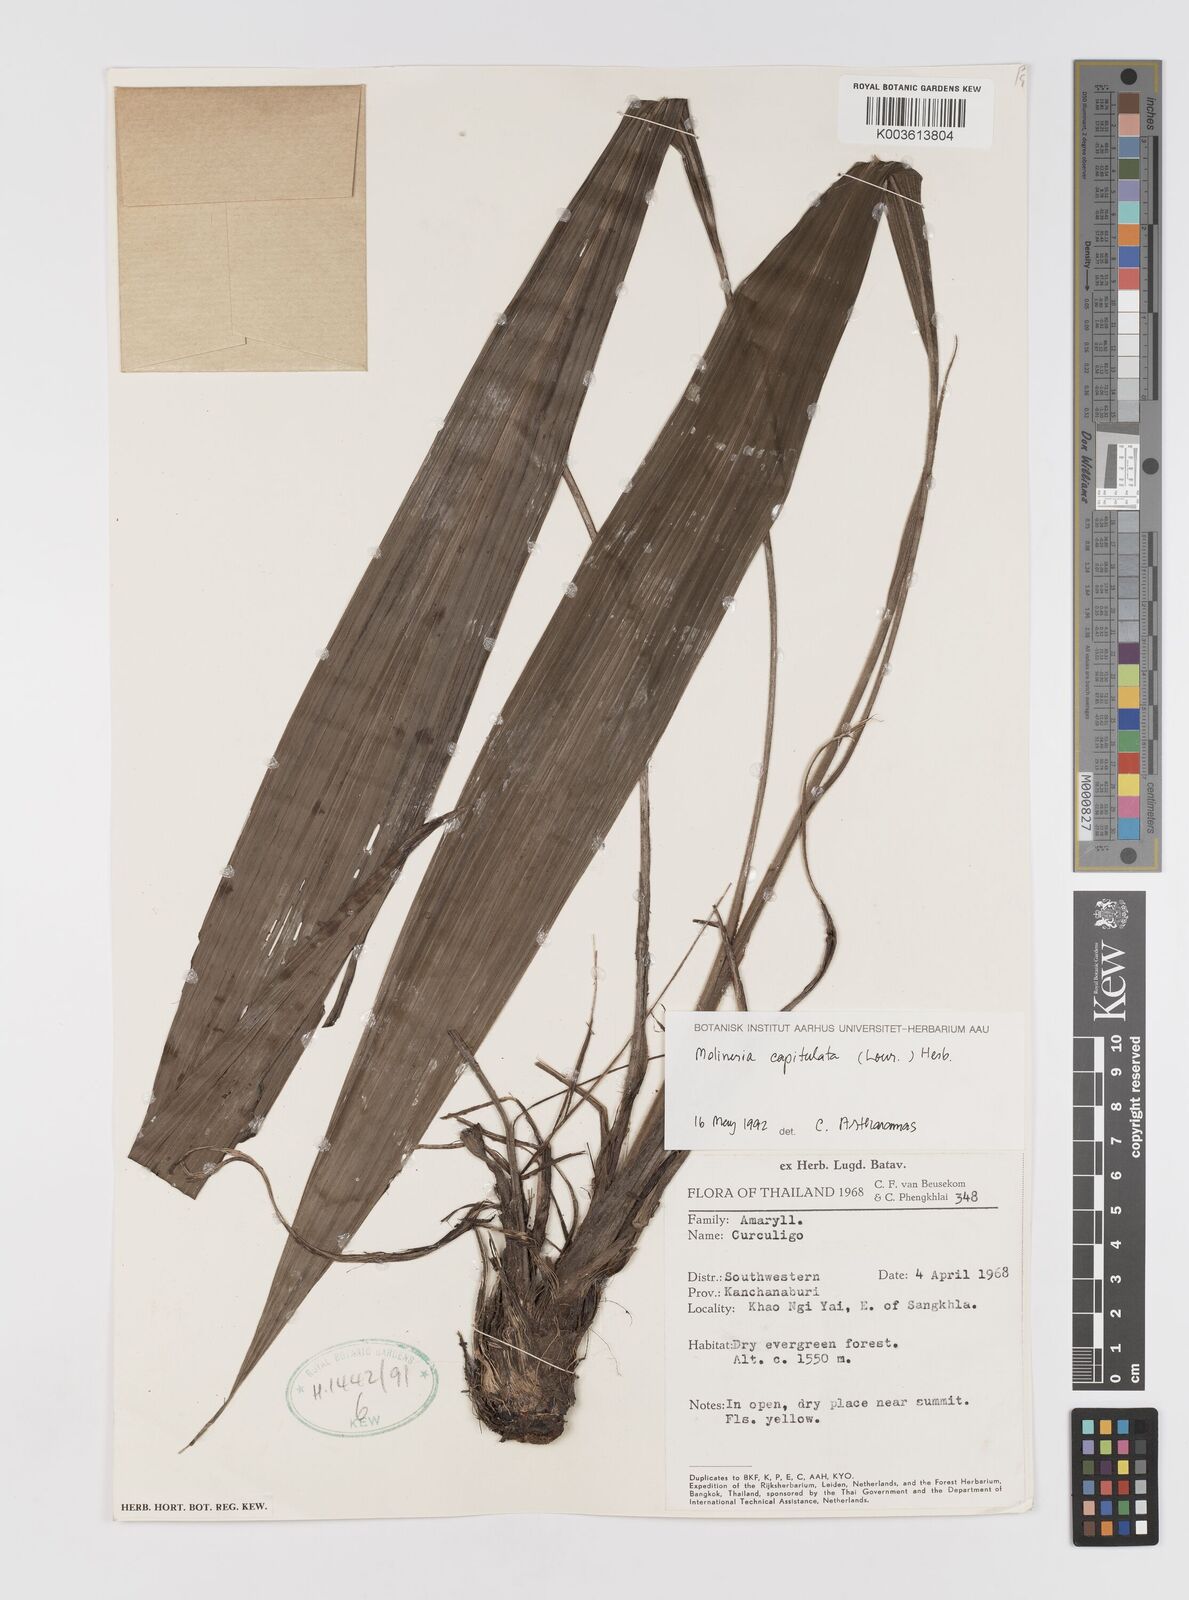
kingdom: Plantae
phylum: Tracheophyta
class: Liliopsida
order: Asparagales
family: Hypoxidaceae
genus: Curculigo
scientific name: Curculigo capitulata
